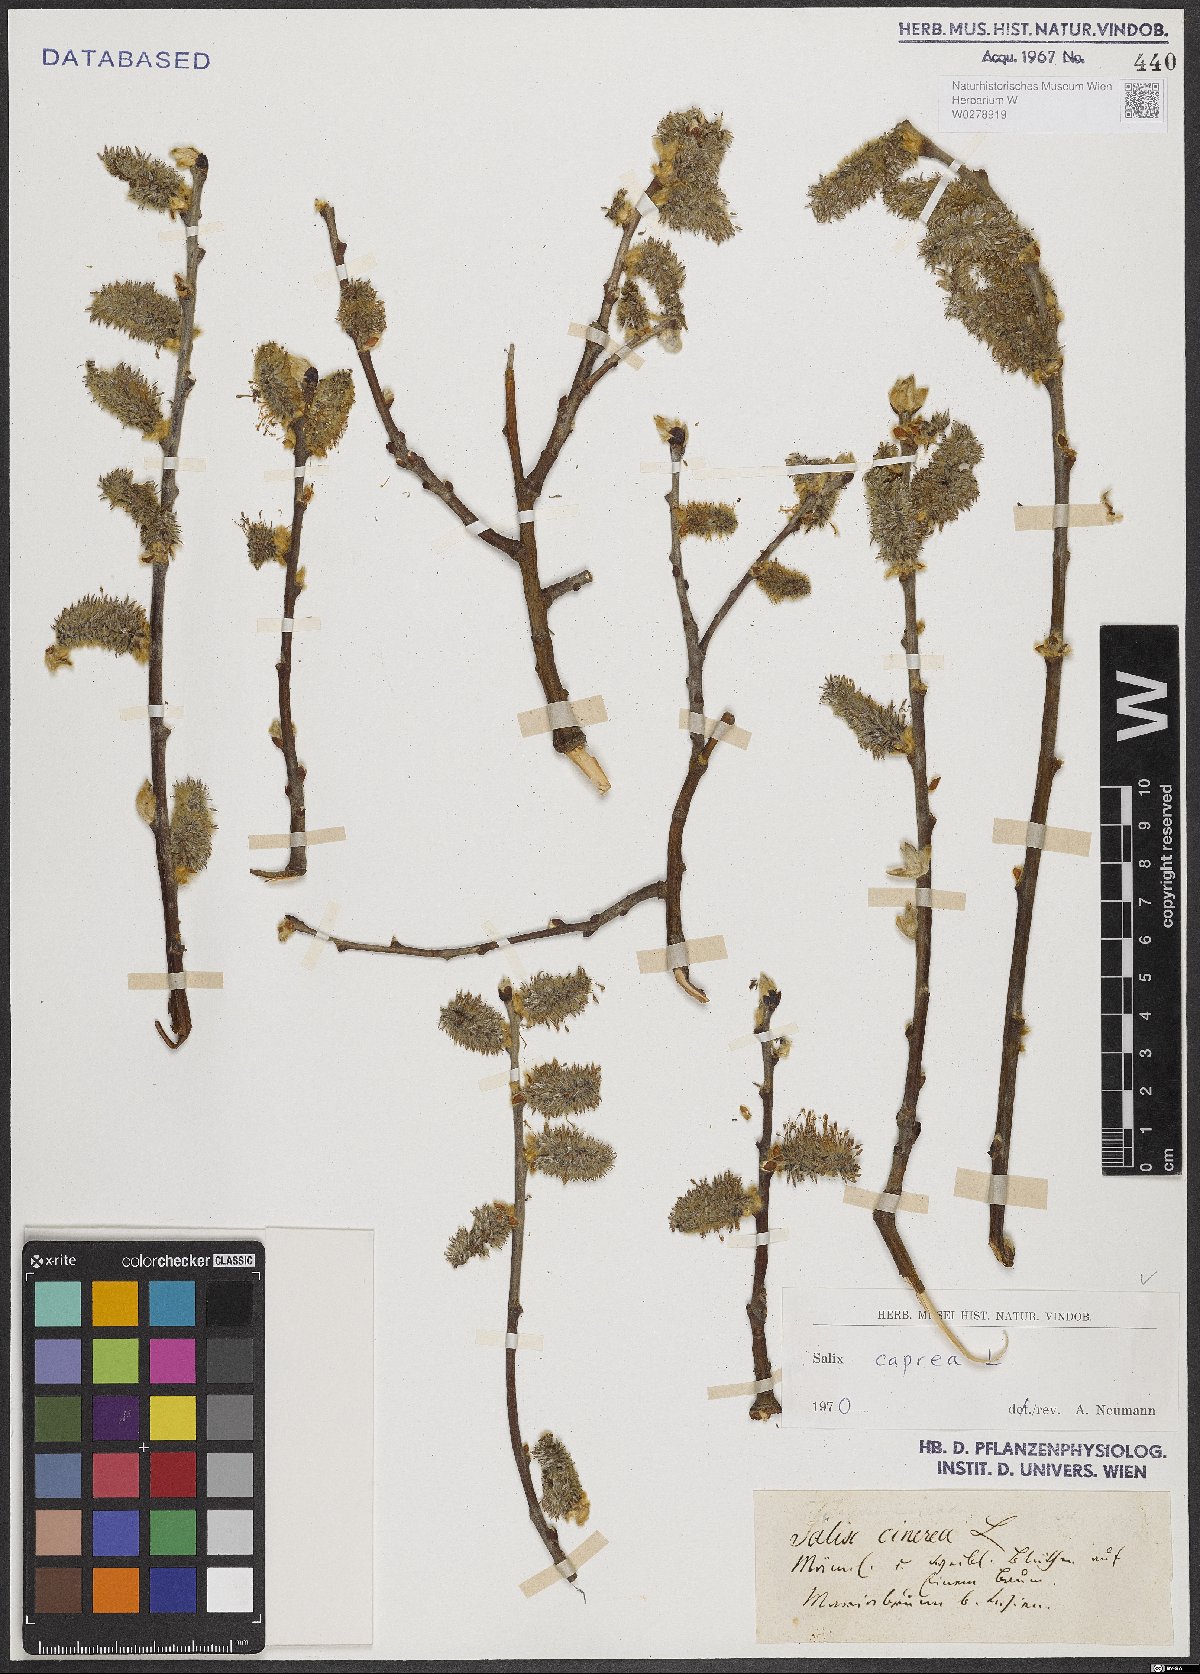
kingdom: Plantae
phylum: Tracheophyta
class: Magnoliopsida
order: Malpighiales
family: Salicaceae
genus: Salix
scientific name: Salix caprea
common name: Goat willow
